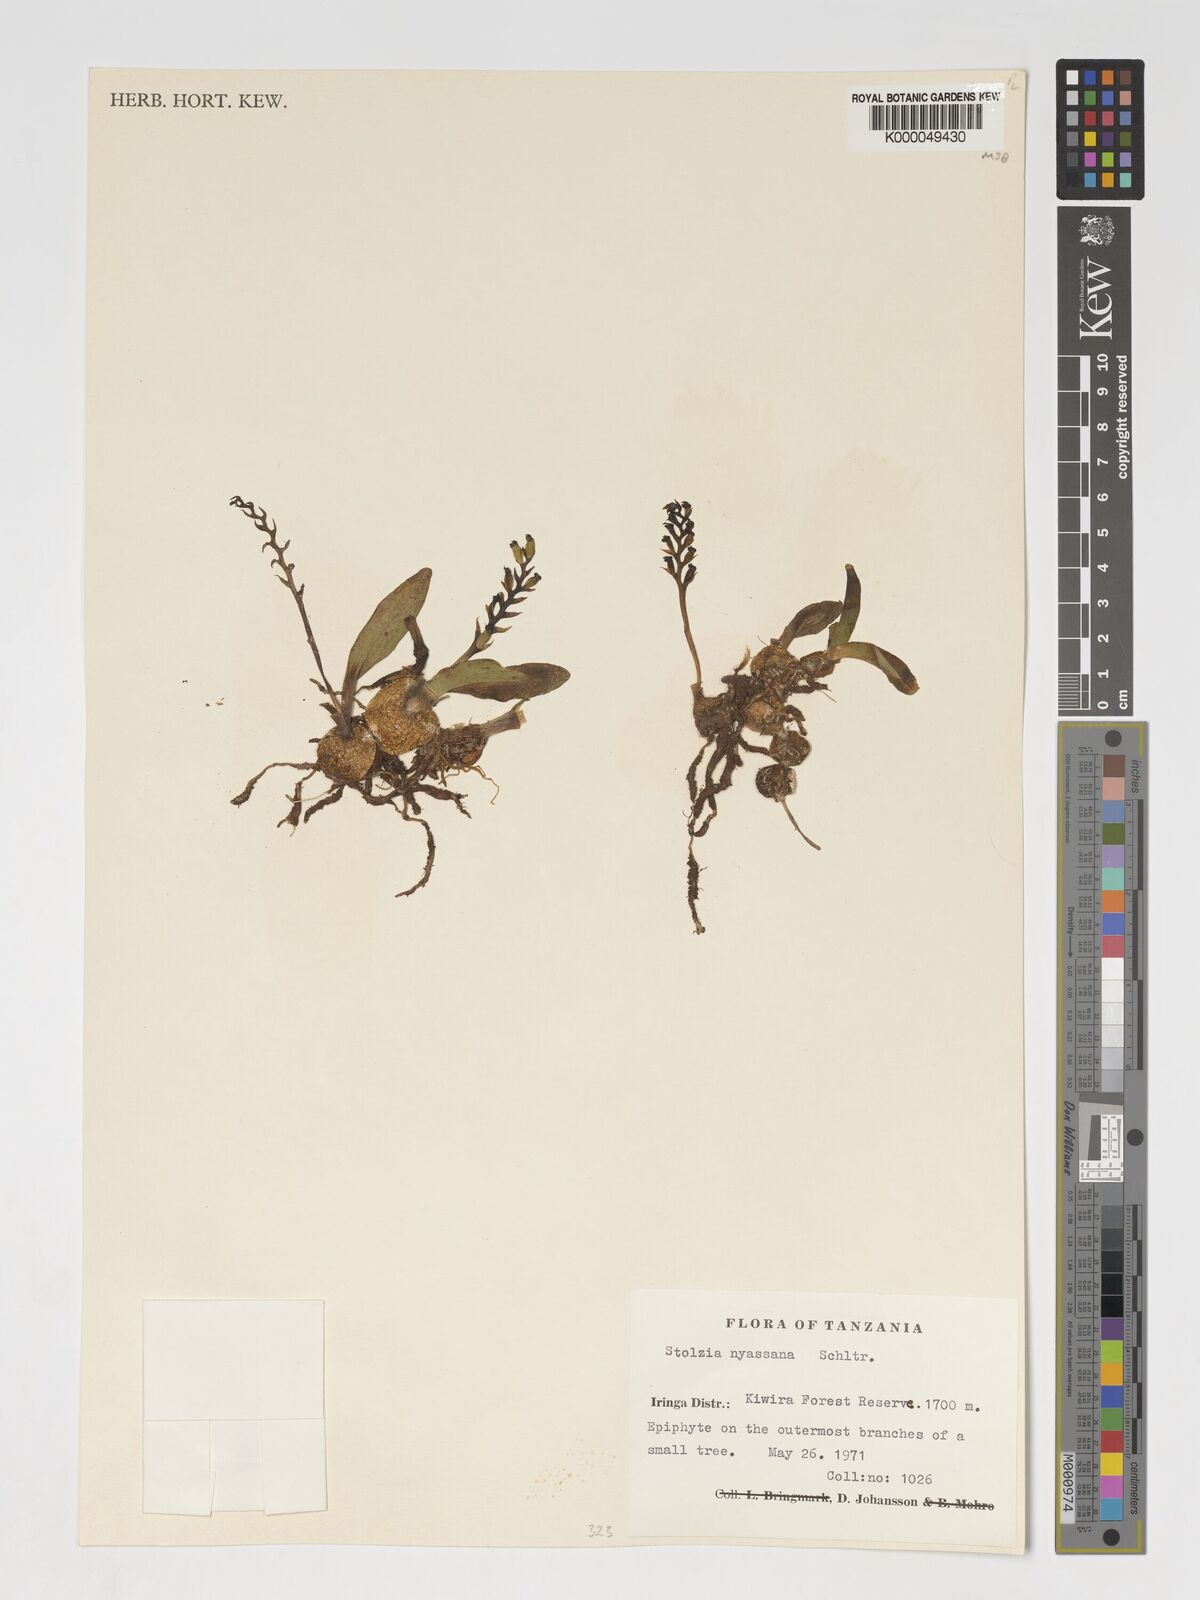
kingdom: Plantae
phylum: Tracheophyta
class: Liliopsida
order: Asparagales
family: Orchidaceae
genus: Porpax
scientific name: Porpax nyassana
